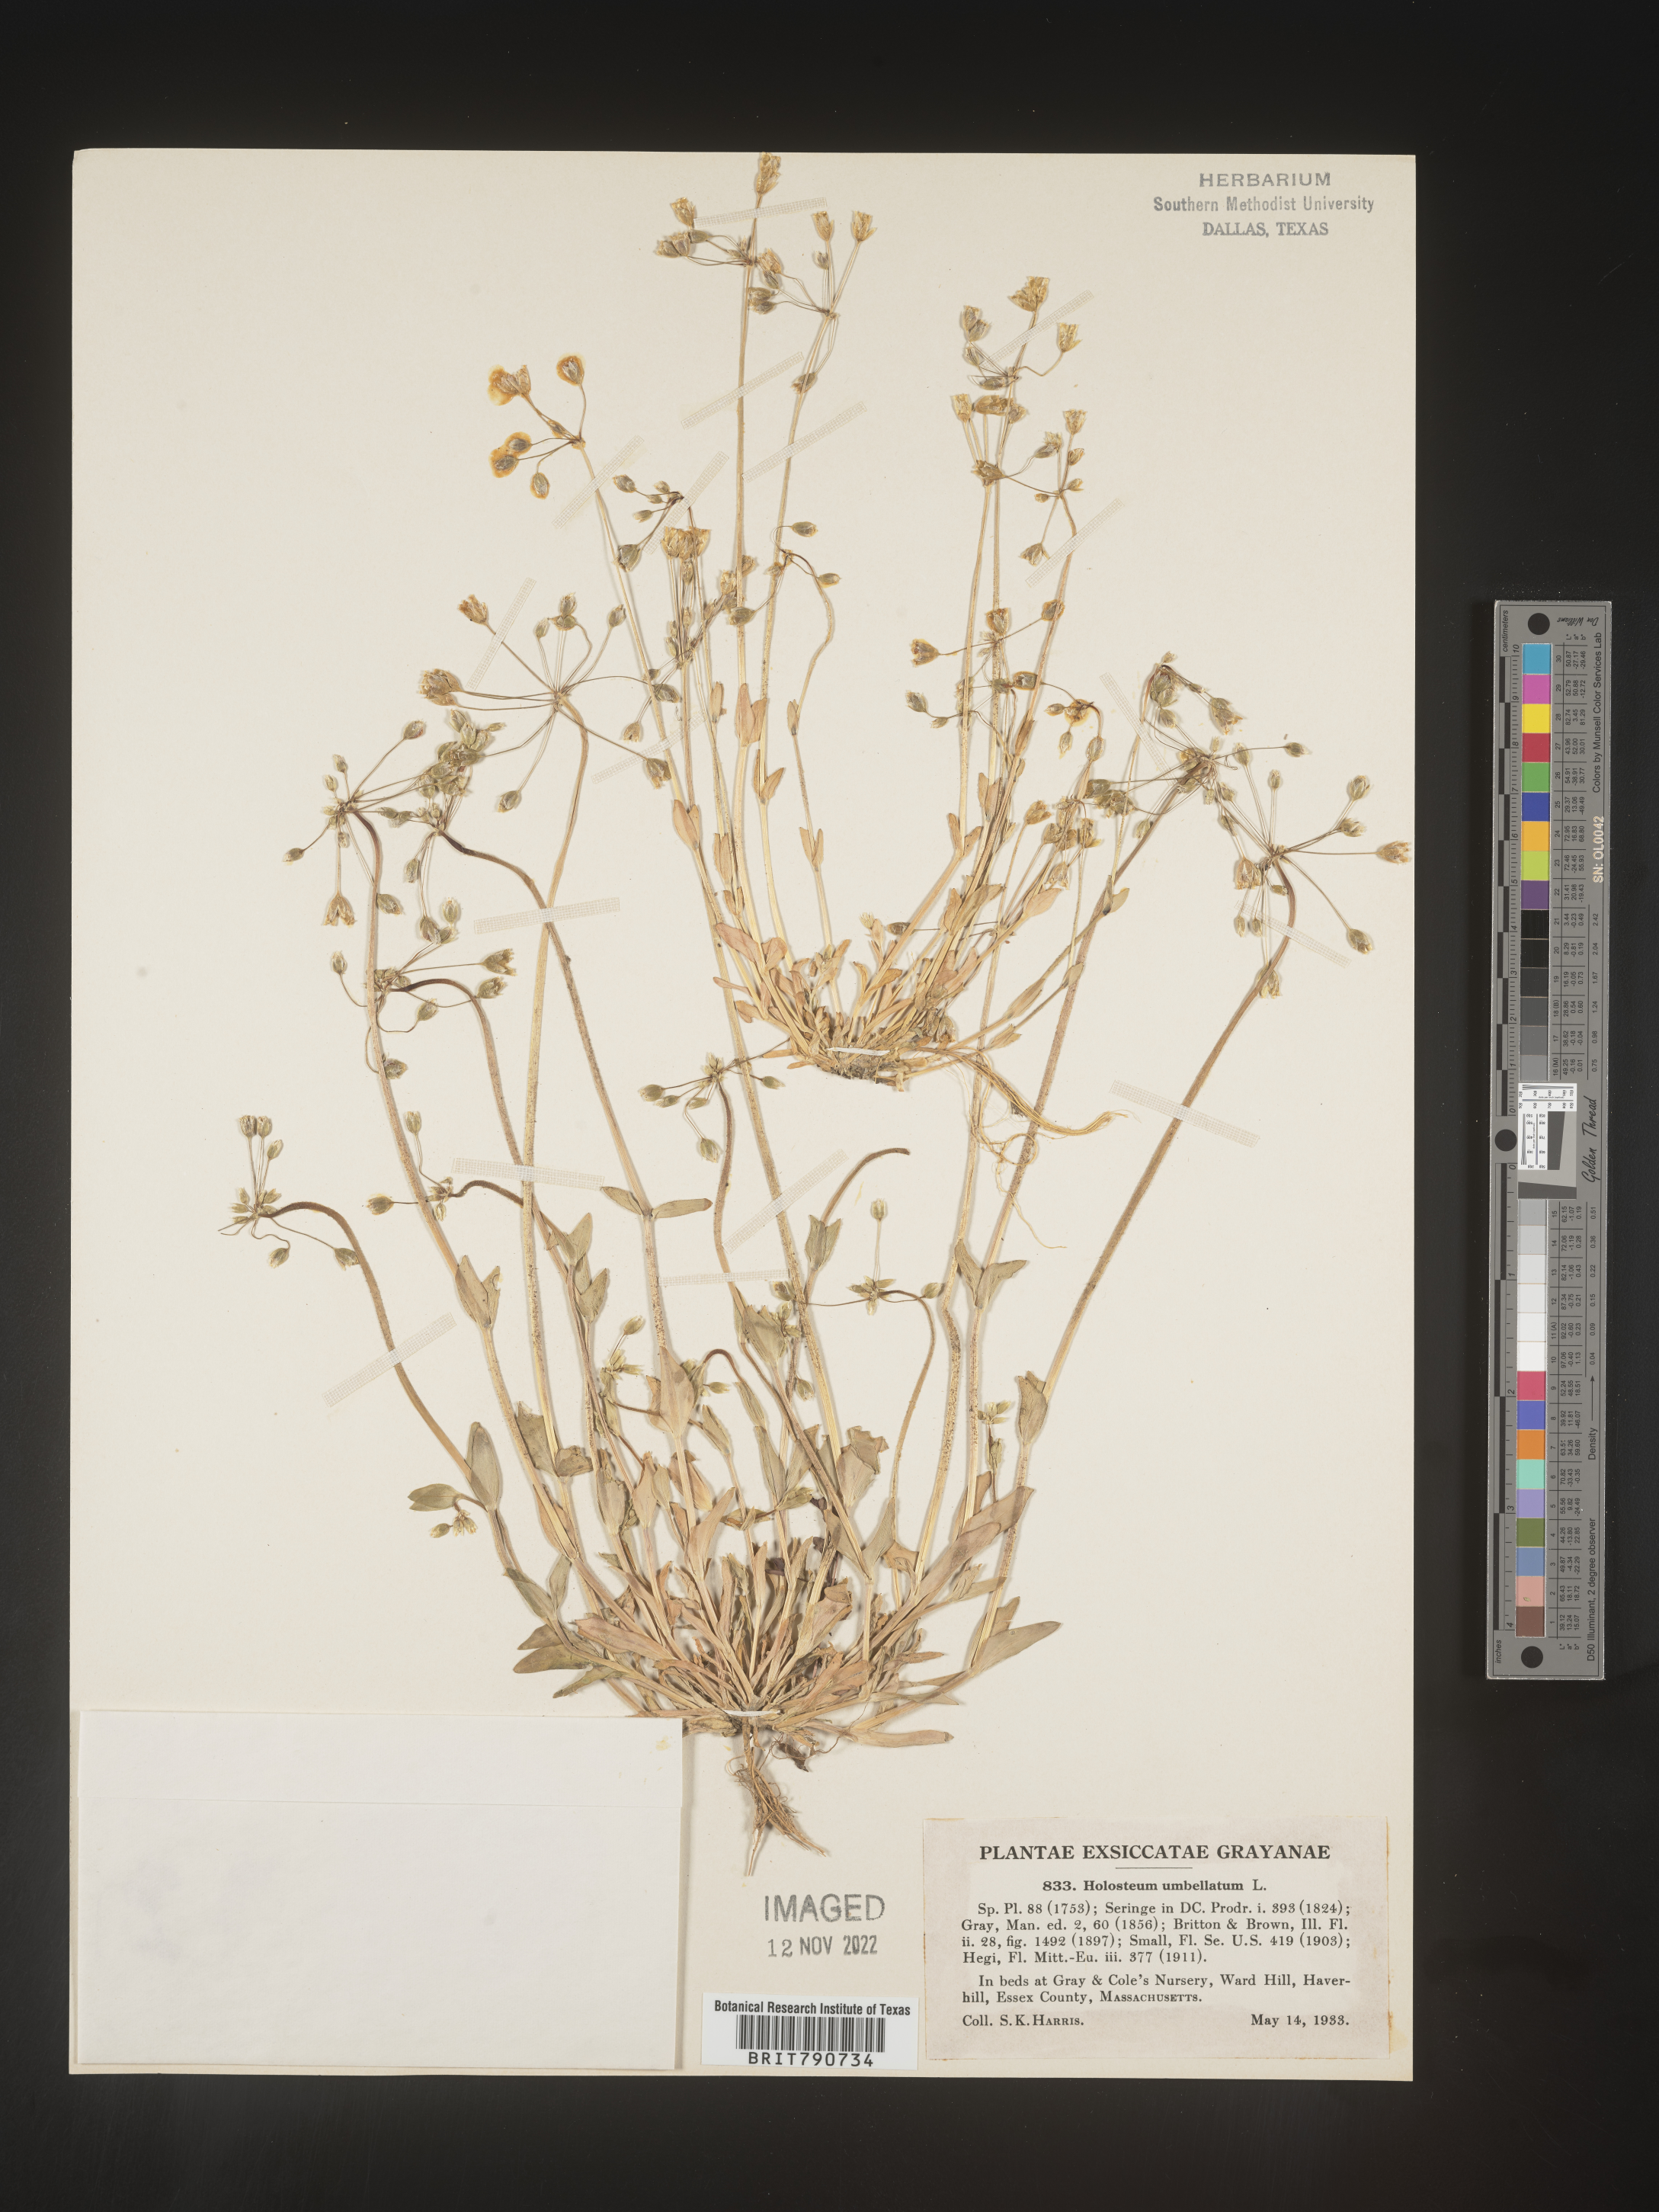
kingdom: Plantae
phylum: Tracheophyta
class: Magnoliopsida
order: Caryophyllales
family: Caryophyllaceae
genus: Holosteum
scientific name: Holosteum
